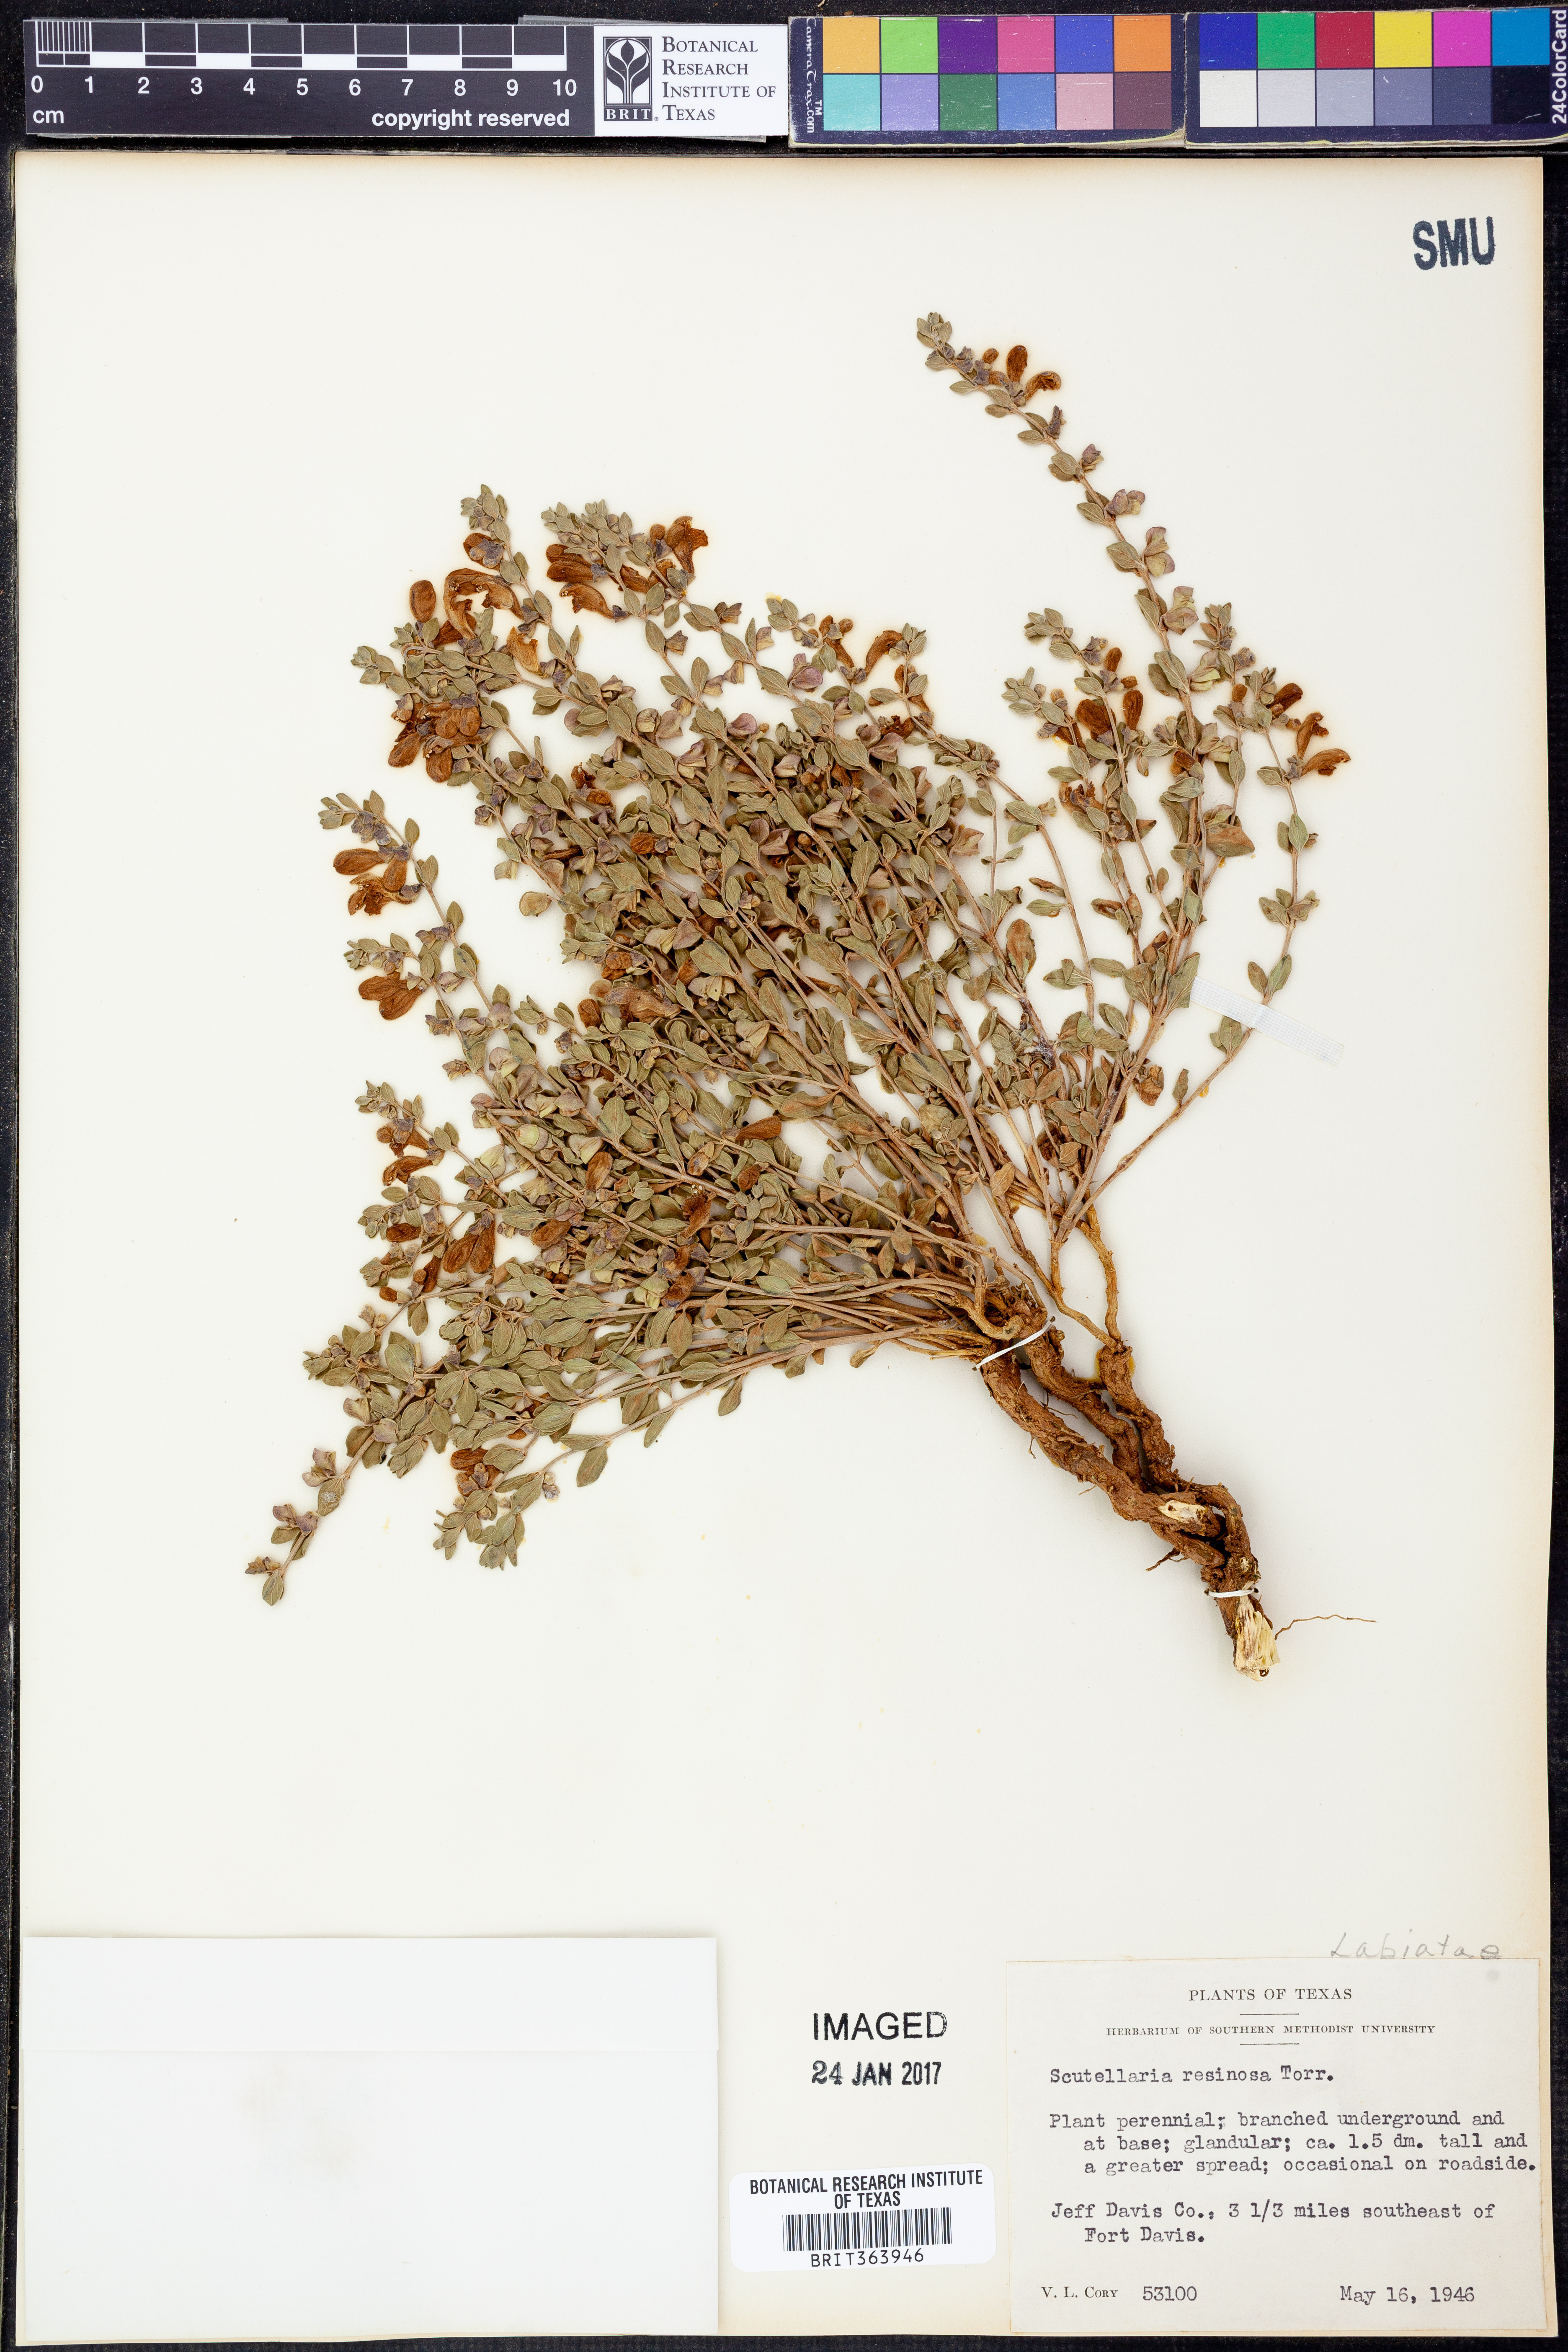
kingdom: Plantae
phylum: Tracheophyta
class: Magnoliopsida
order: Lamiales
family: Lamiaceae
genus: Scutellaria
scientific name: Scutellaria resinosa
